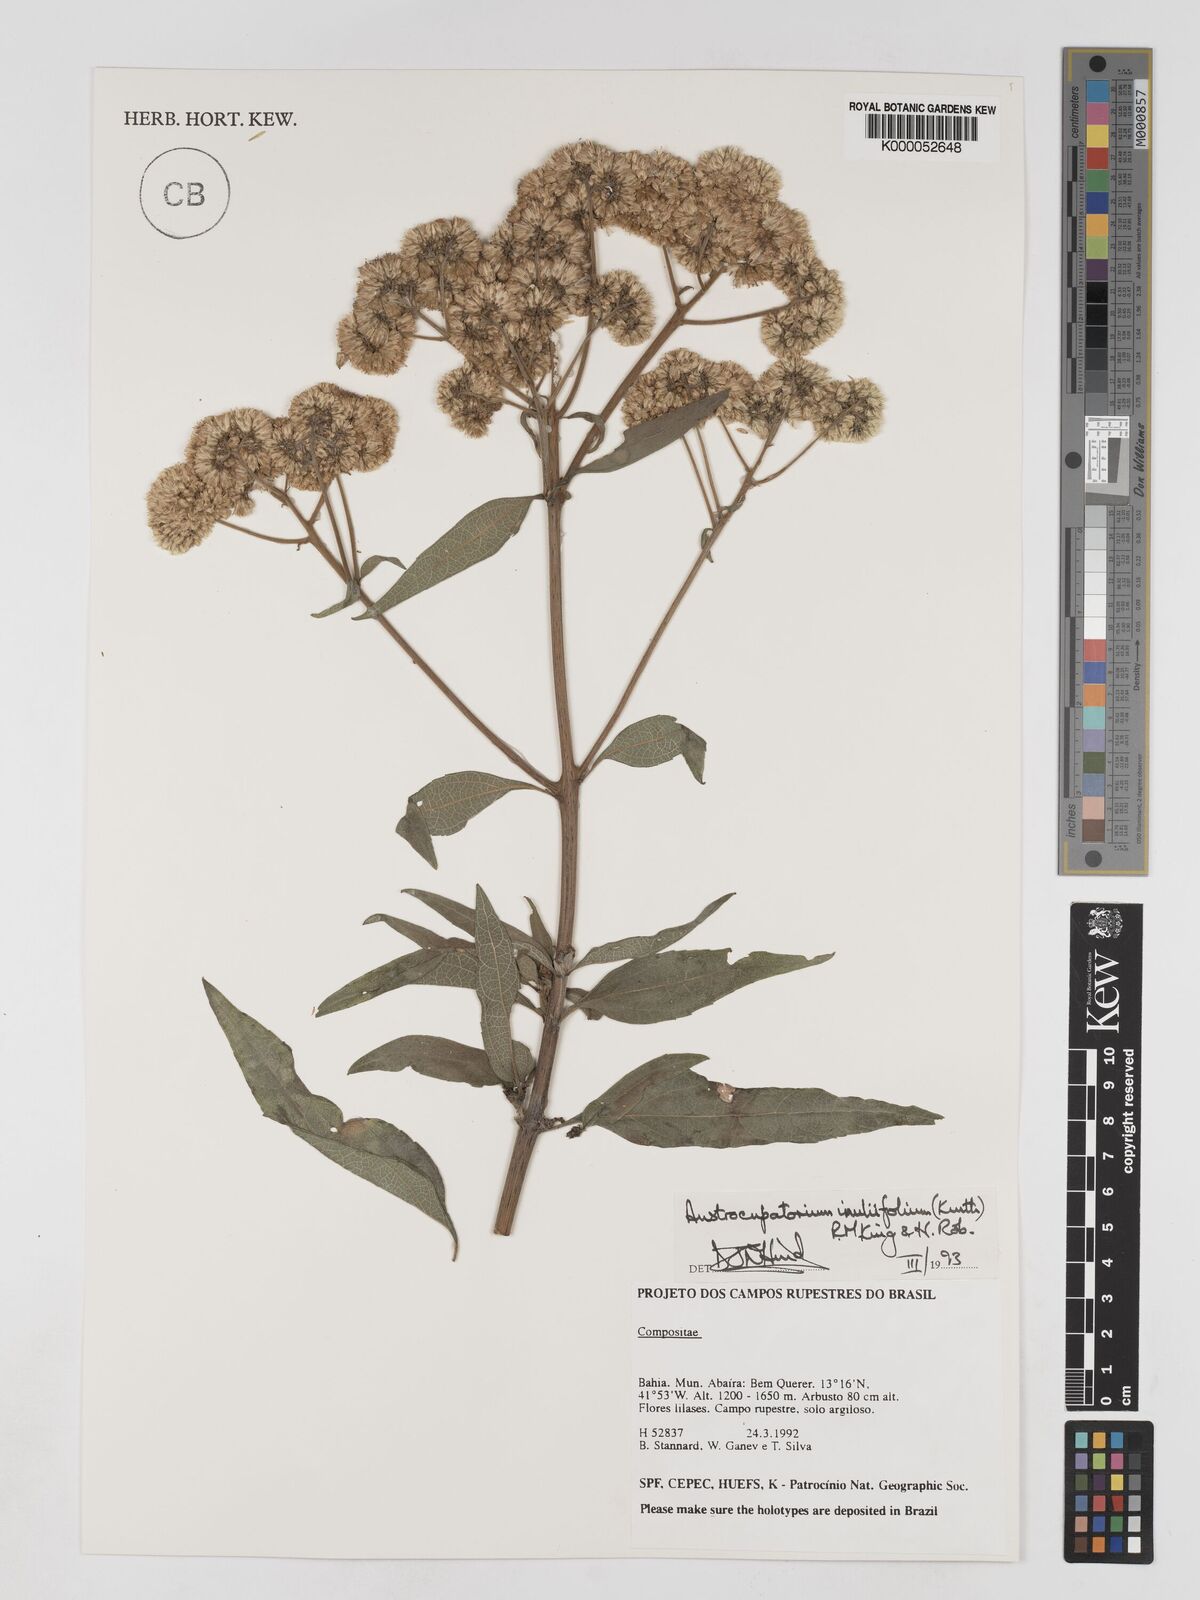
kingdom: Plantae
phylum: Tracheophyta
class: Magnoliopsida
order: Asterales
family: Asteraceae
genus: Austroeupatorium
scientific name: Austroeupatorium inulifolium
